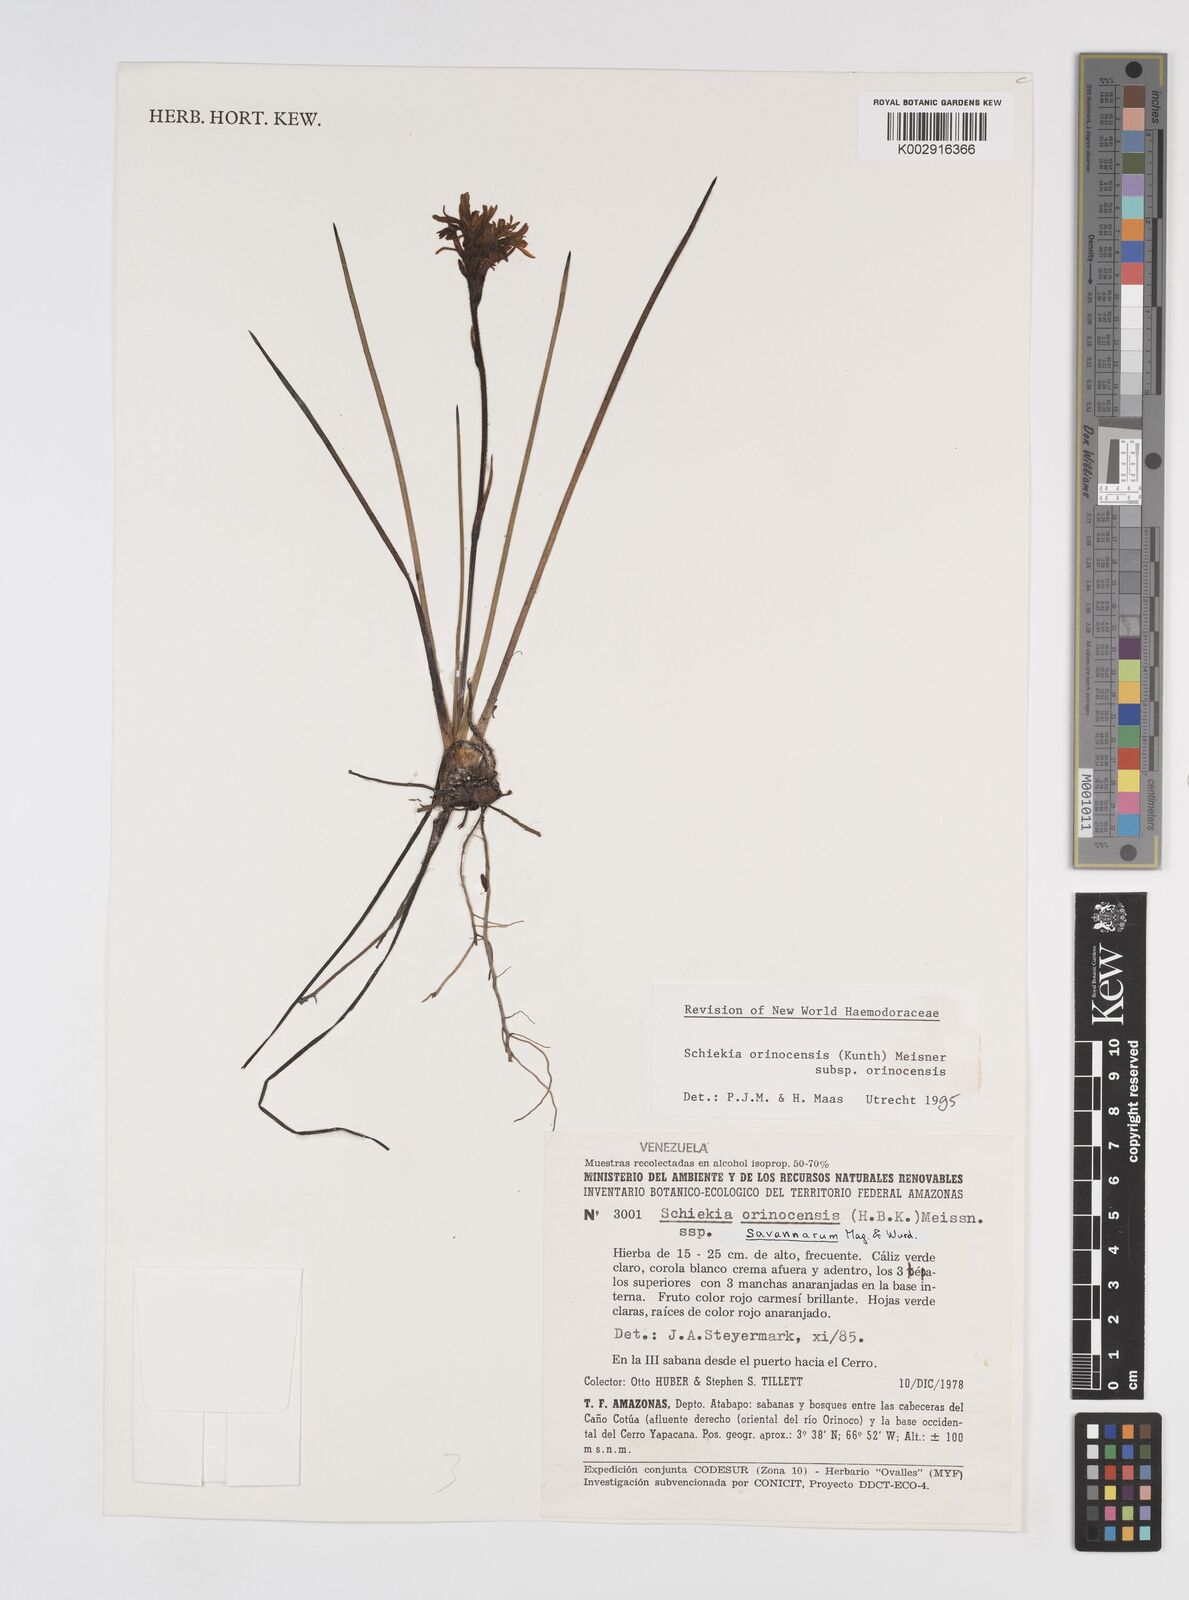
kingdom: Plantae
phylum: Tracheophyta
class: Liliopsida
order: Commelinales
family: Haemodoraceae
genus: Schiekia
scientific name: Schiekia orinocensis
